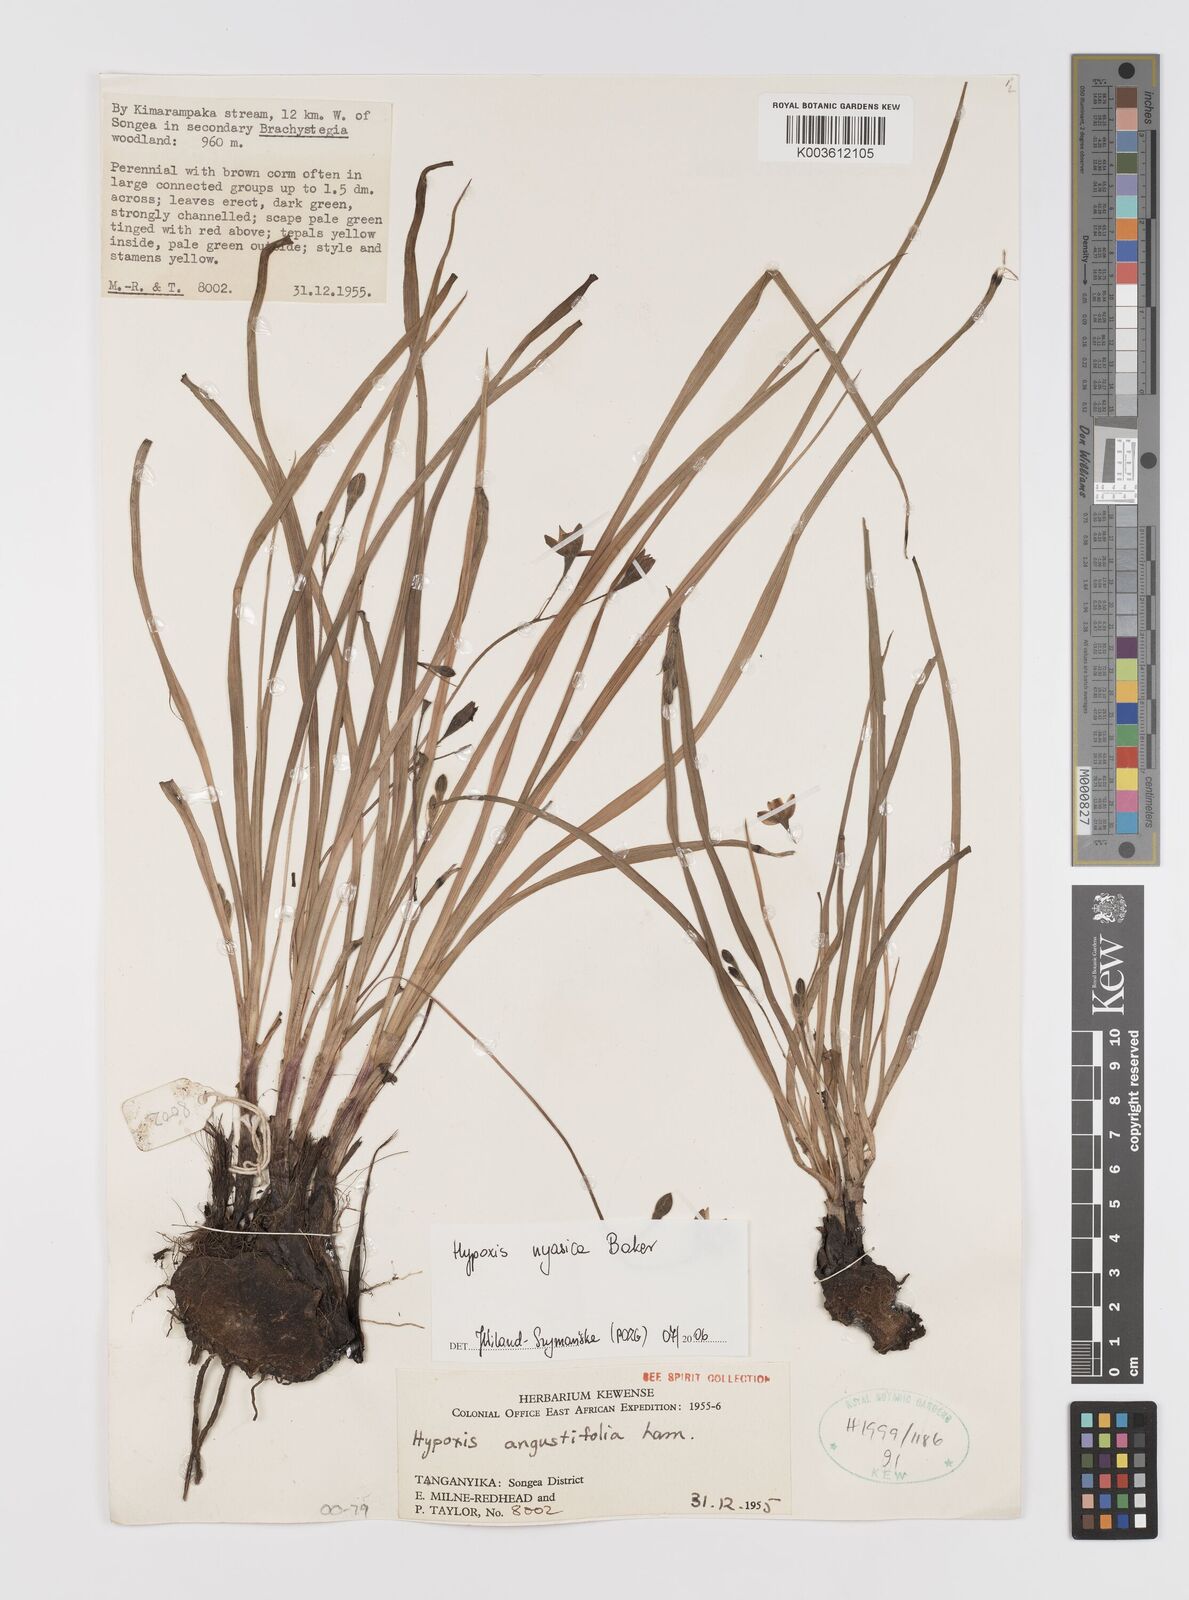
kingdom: Plantae
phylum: Tracheophyta
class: Liliopsida
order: Asparagales
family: Hypoxidaceae
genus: Hypoxis
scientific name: Hypoxis nyasica
